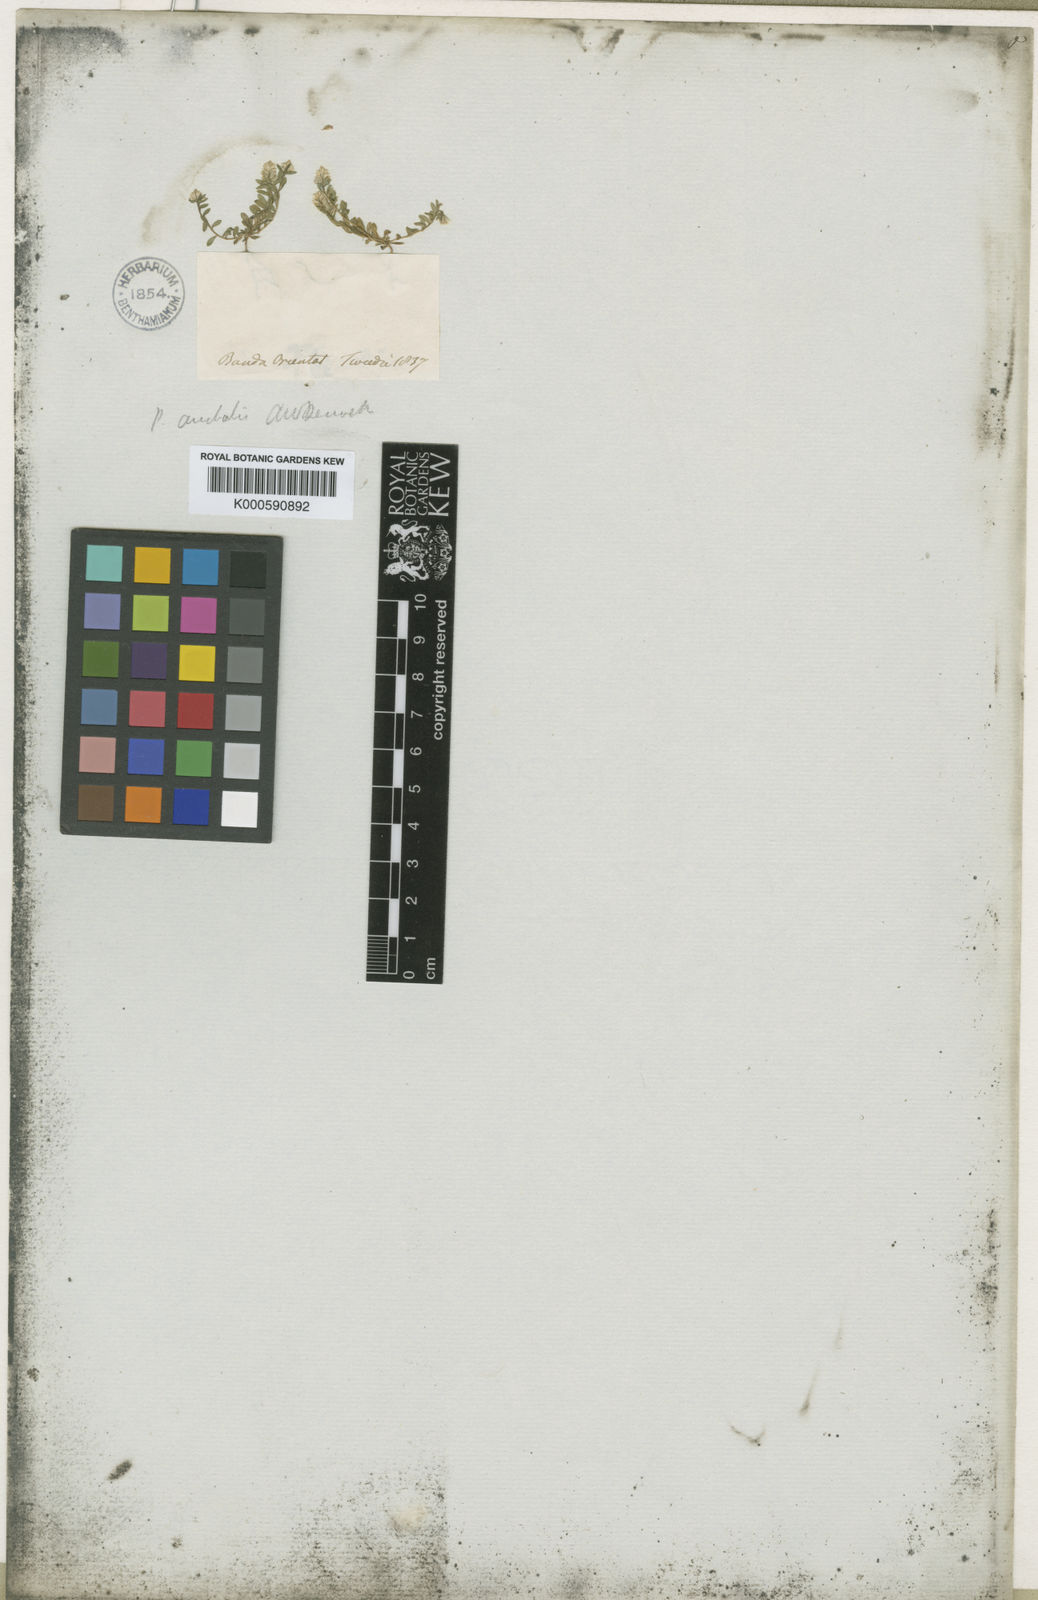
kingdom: Plantae
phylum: Tracheophyta
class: Magnoliopsida
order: Fabales
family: Polygalaceae
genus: Polygala
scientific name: Polygala pulchella
